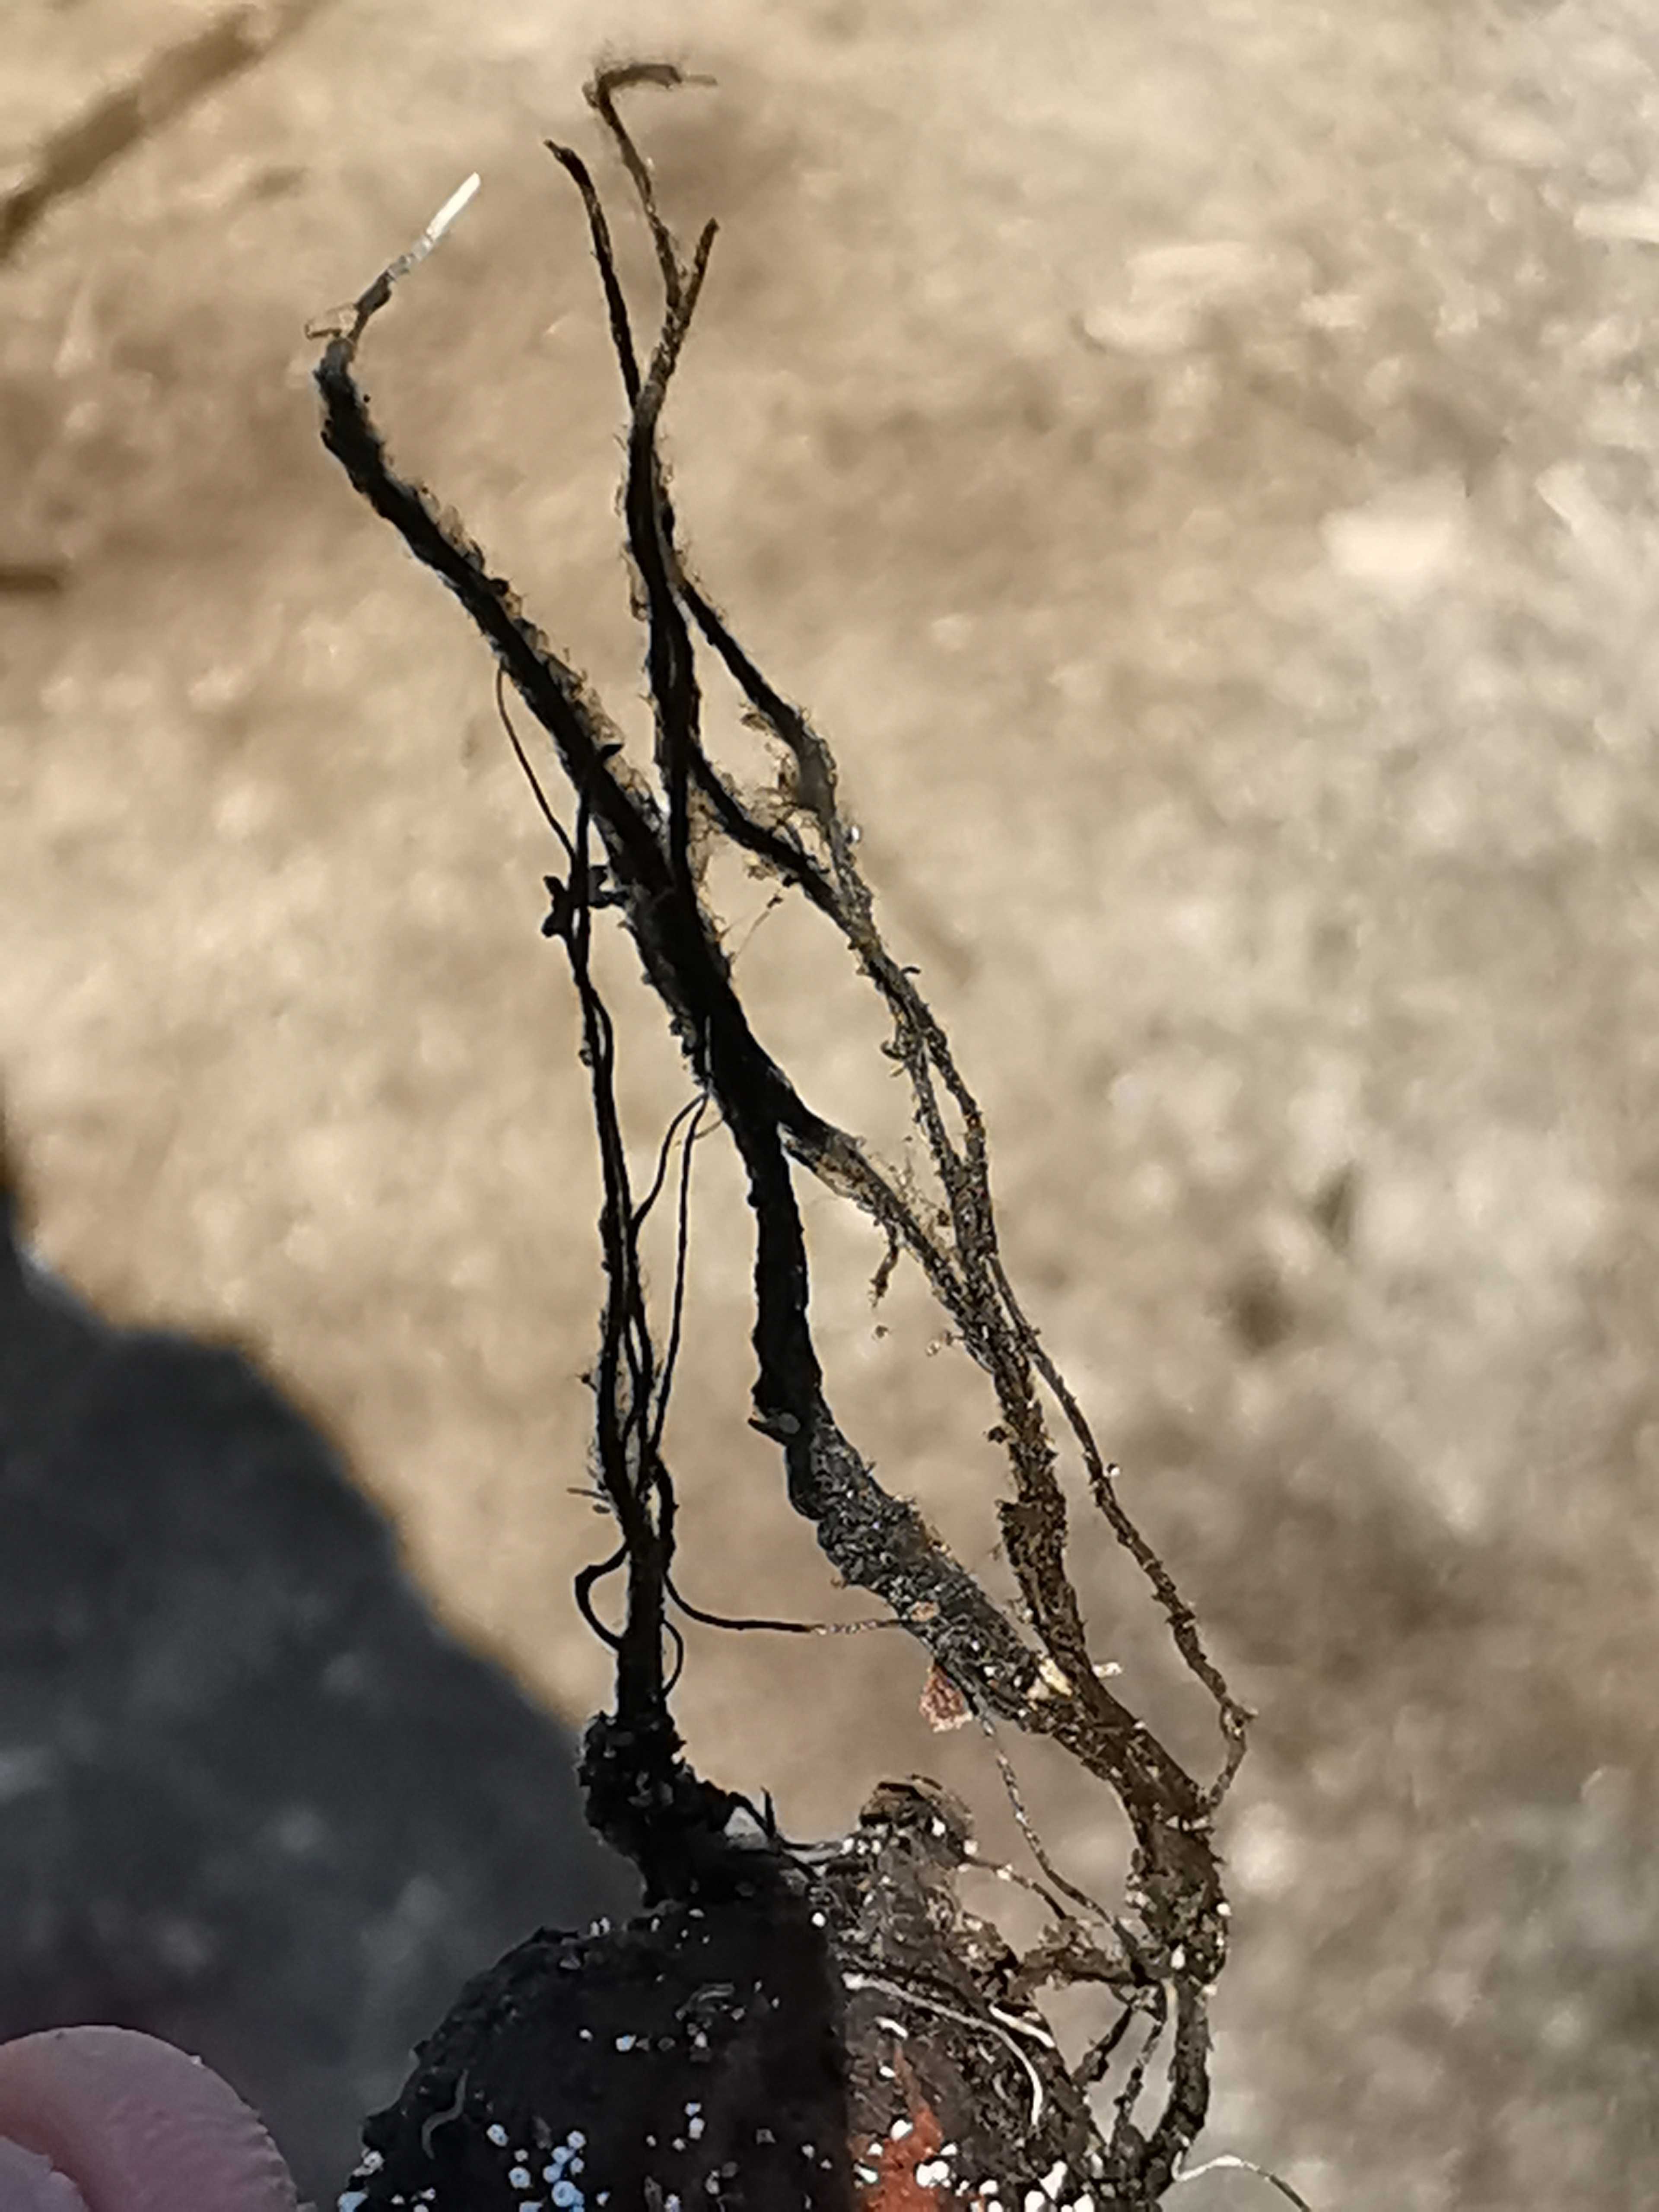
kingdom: Fungi
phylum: Ascomycota
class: Sordariomycetes
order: Xylariales
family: Xylariaceae
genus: Xylaria
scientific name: Xylaria carpophila
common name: bogskål-stødsvamp
